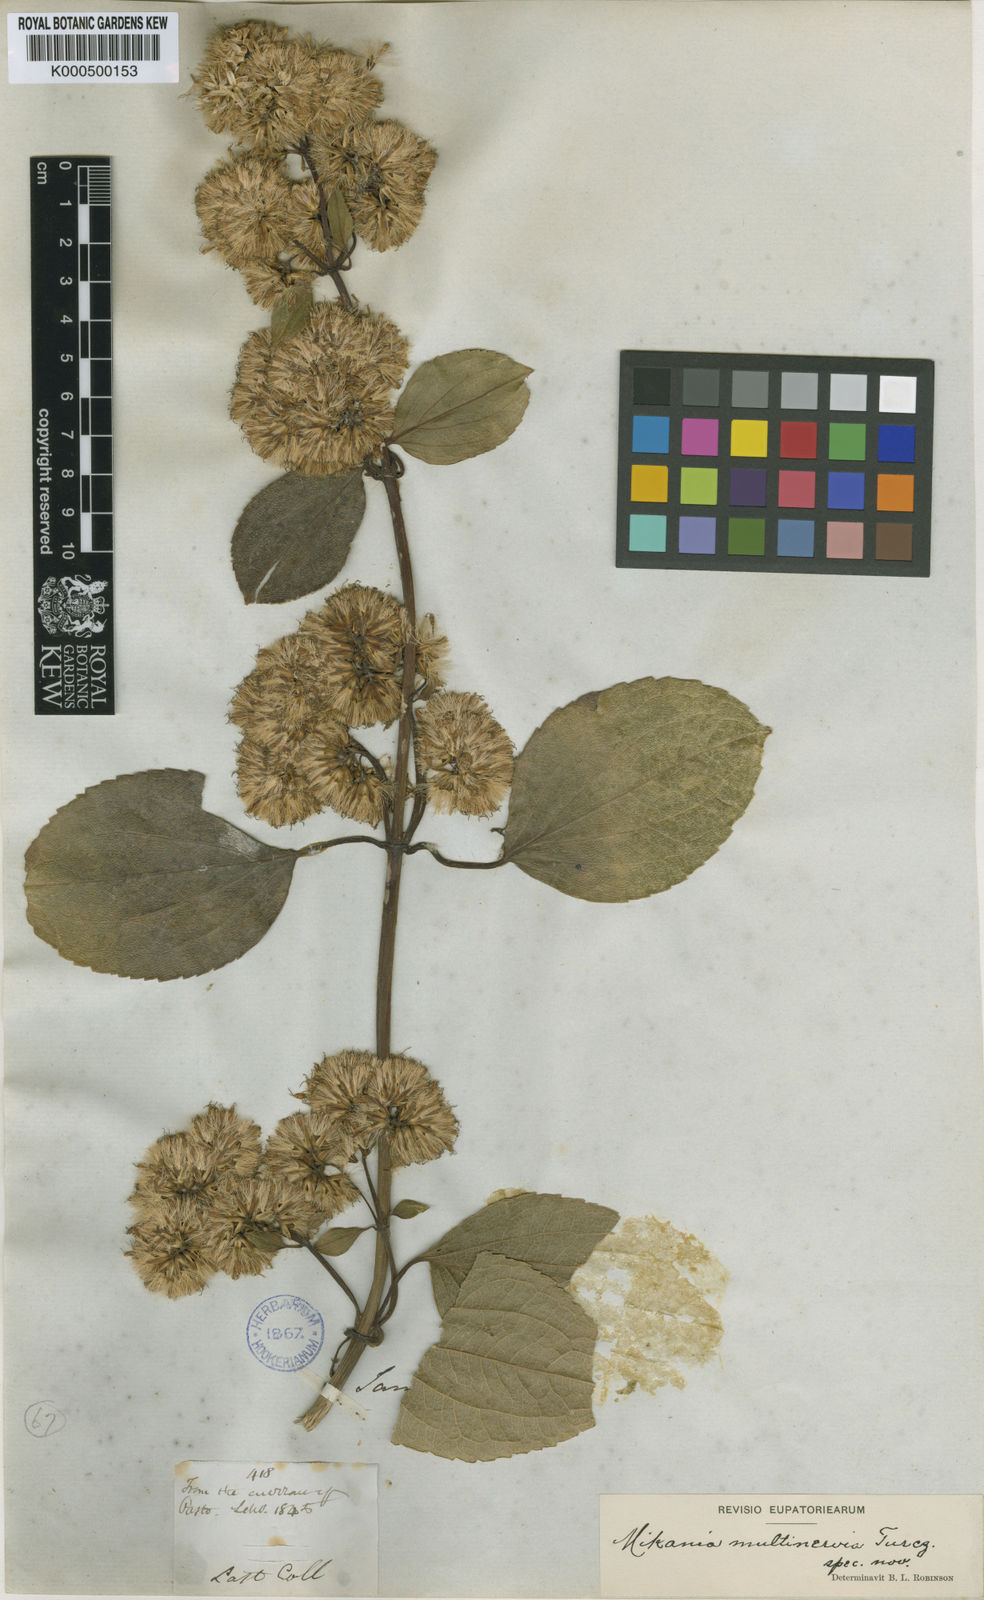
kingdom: Plantae
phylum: Tracheophyta
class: Magnoliopsida
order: Asterales
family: Asteraceae
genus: Mikania
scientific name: Mikania multinervia
